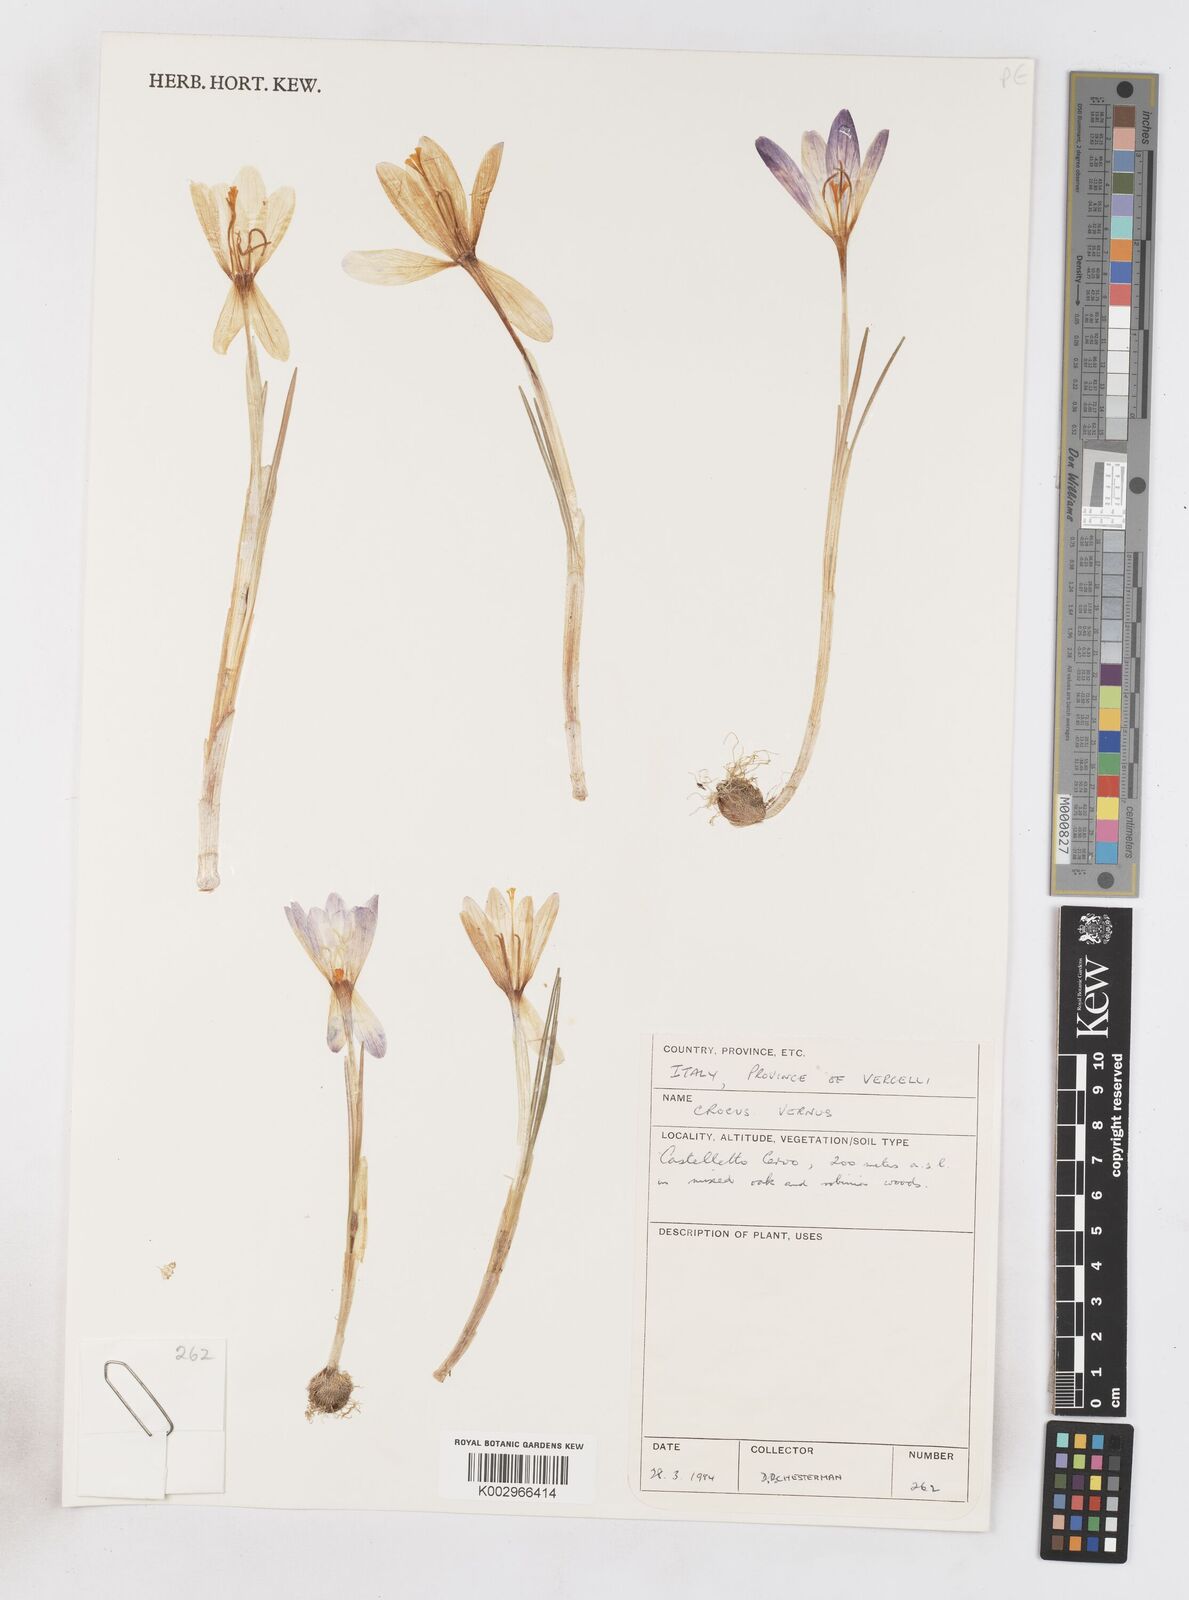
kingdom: Plantae
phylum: Tracheophyta
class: Liliopsida
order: Asparagales
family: Iridaceae
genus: Crocus
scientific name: Crocus vernus
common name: Spring crocus
